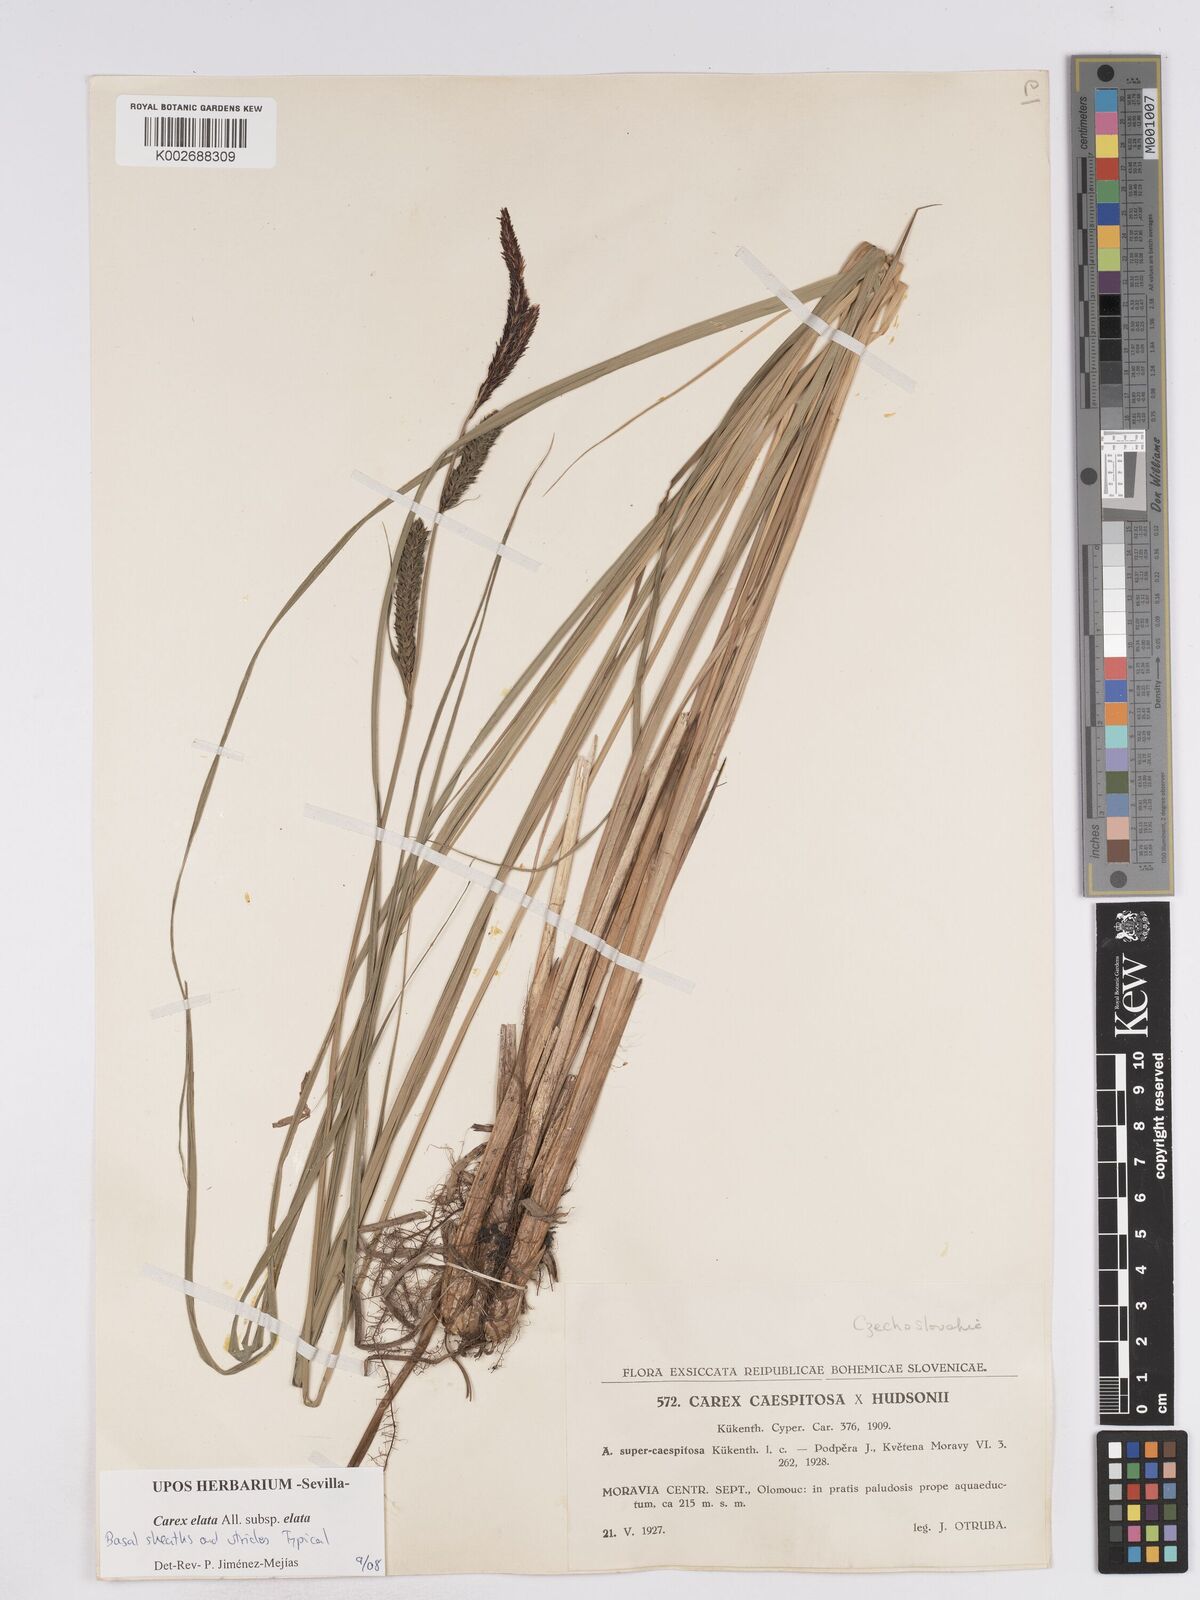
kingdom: Plantae
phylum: Tracheophyta
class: Liliopsida
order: Poales
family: Cyperaceae
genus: Carex
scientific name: Carex elata
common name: Tufted sedge
